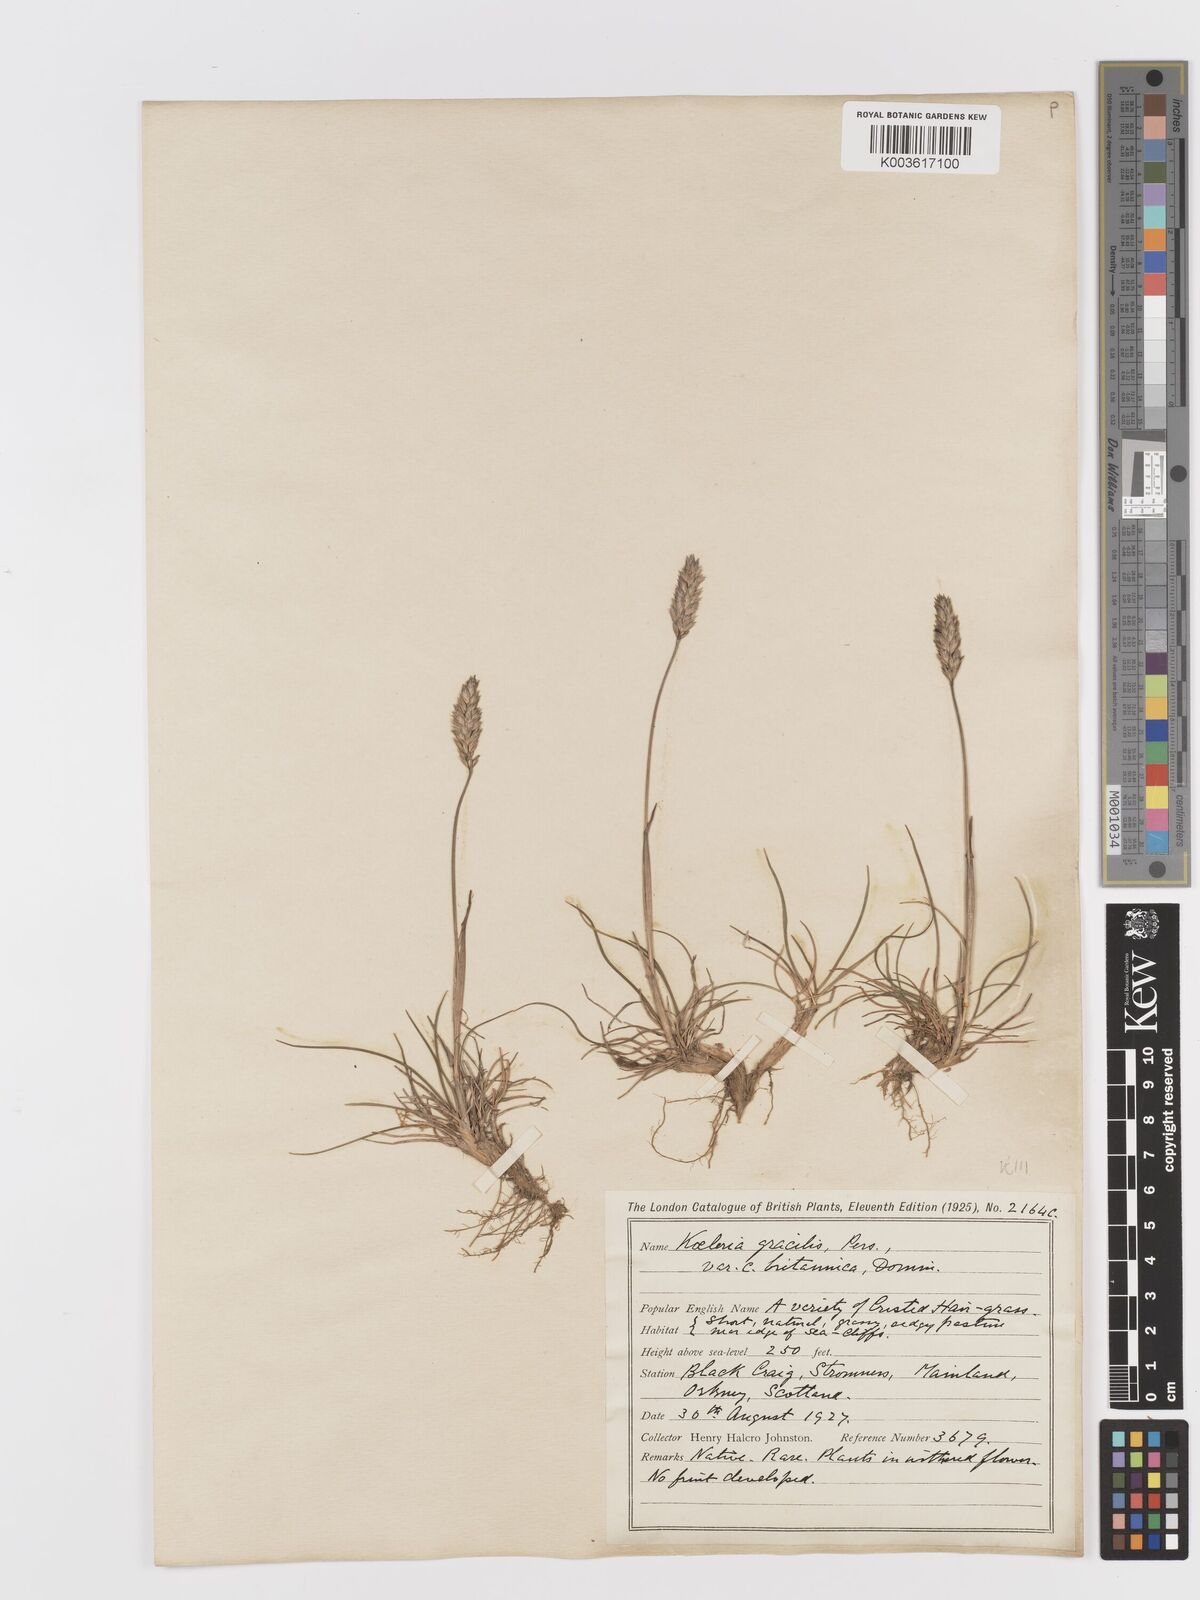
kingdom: Plantae
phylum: Tracheophyta
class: Liliopsida
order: Poales
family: Poaceae
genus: Koeleria
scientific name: Koeleria macrantha
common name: Crested hair-grass
